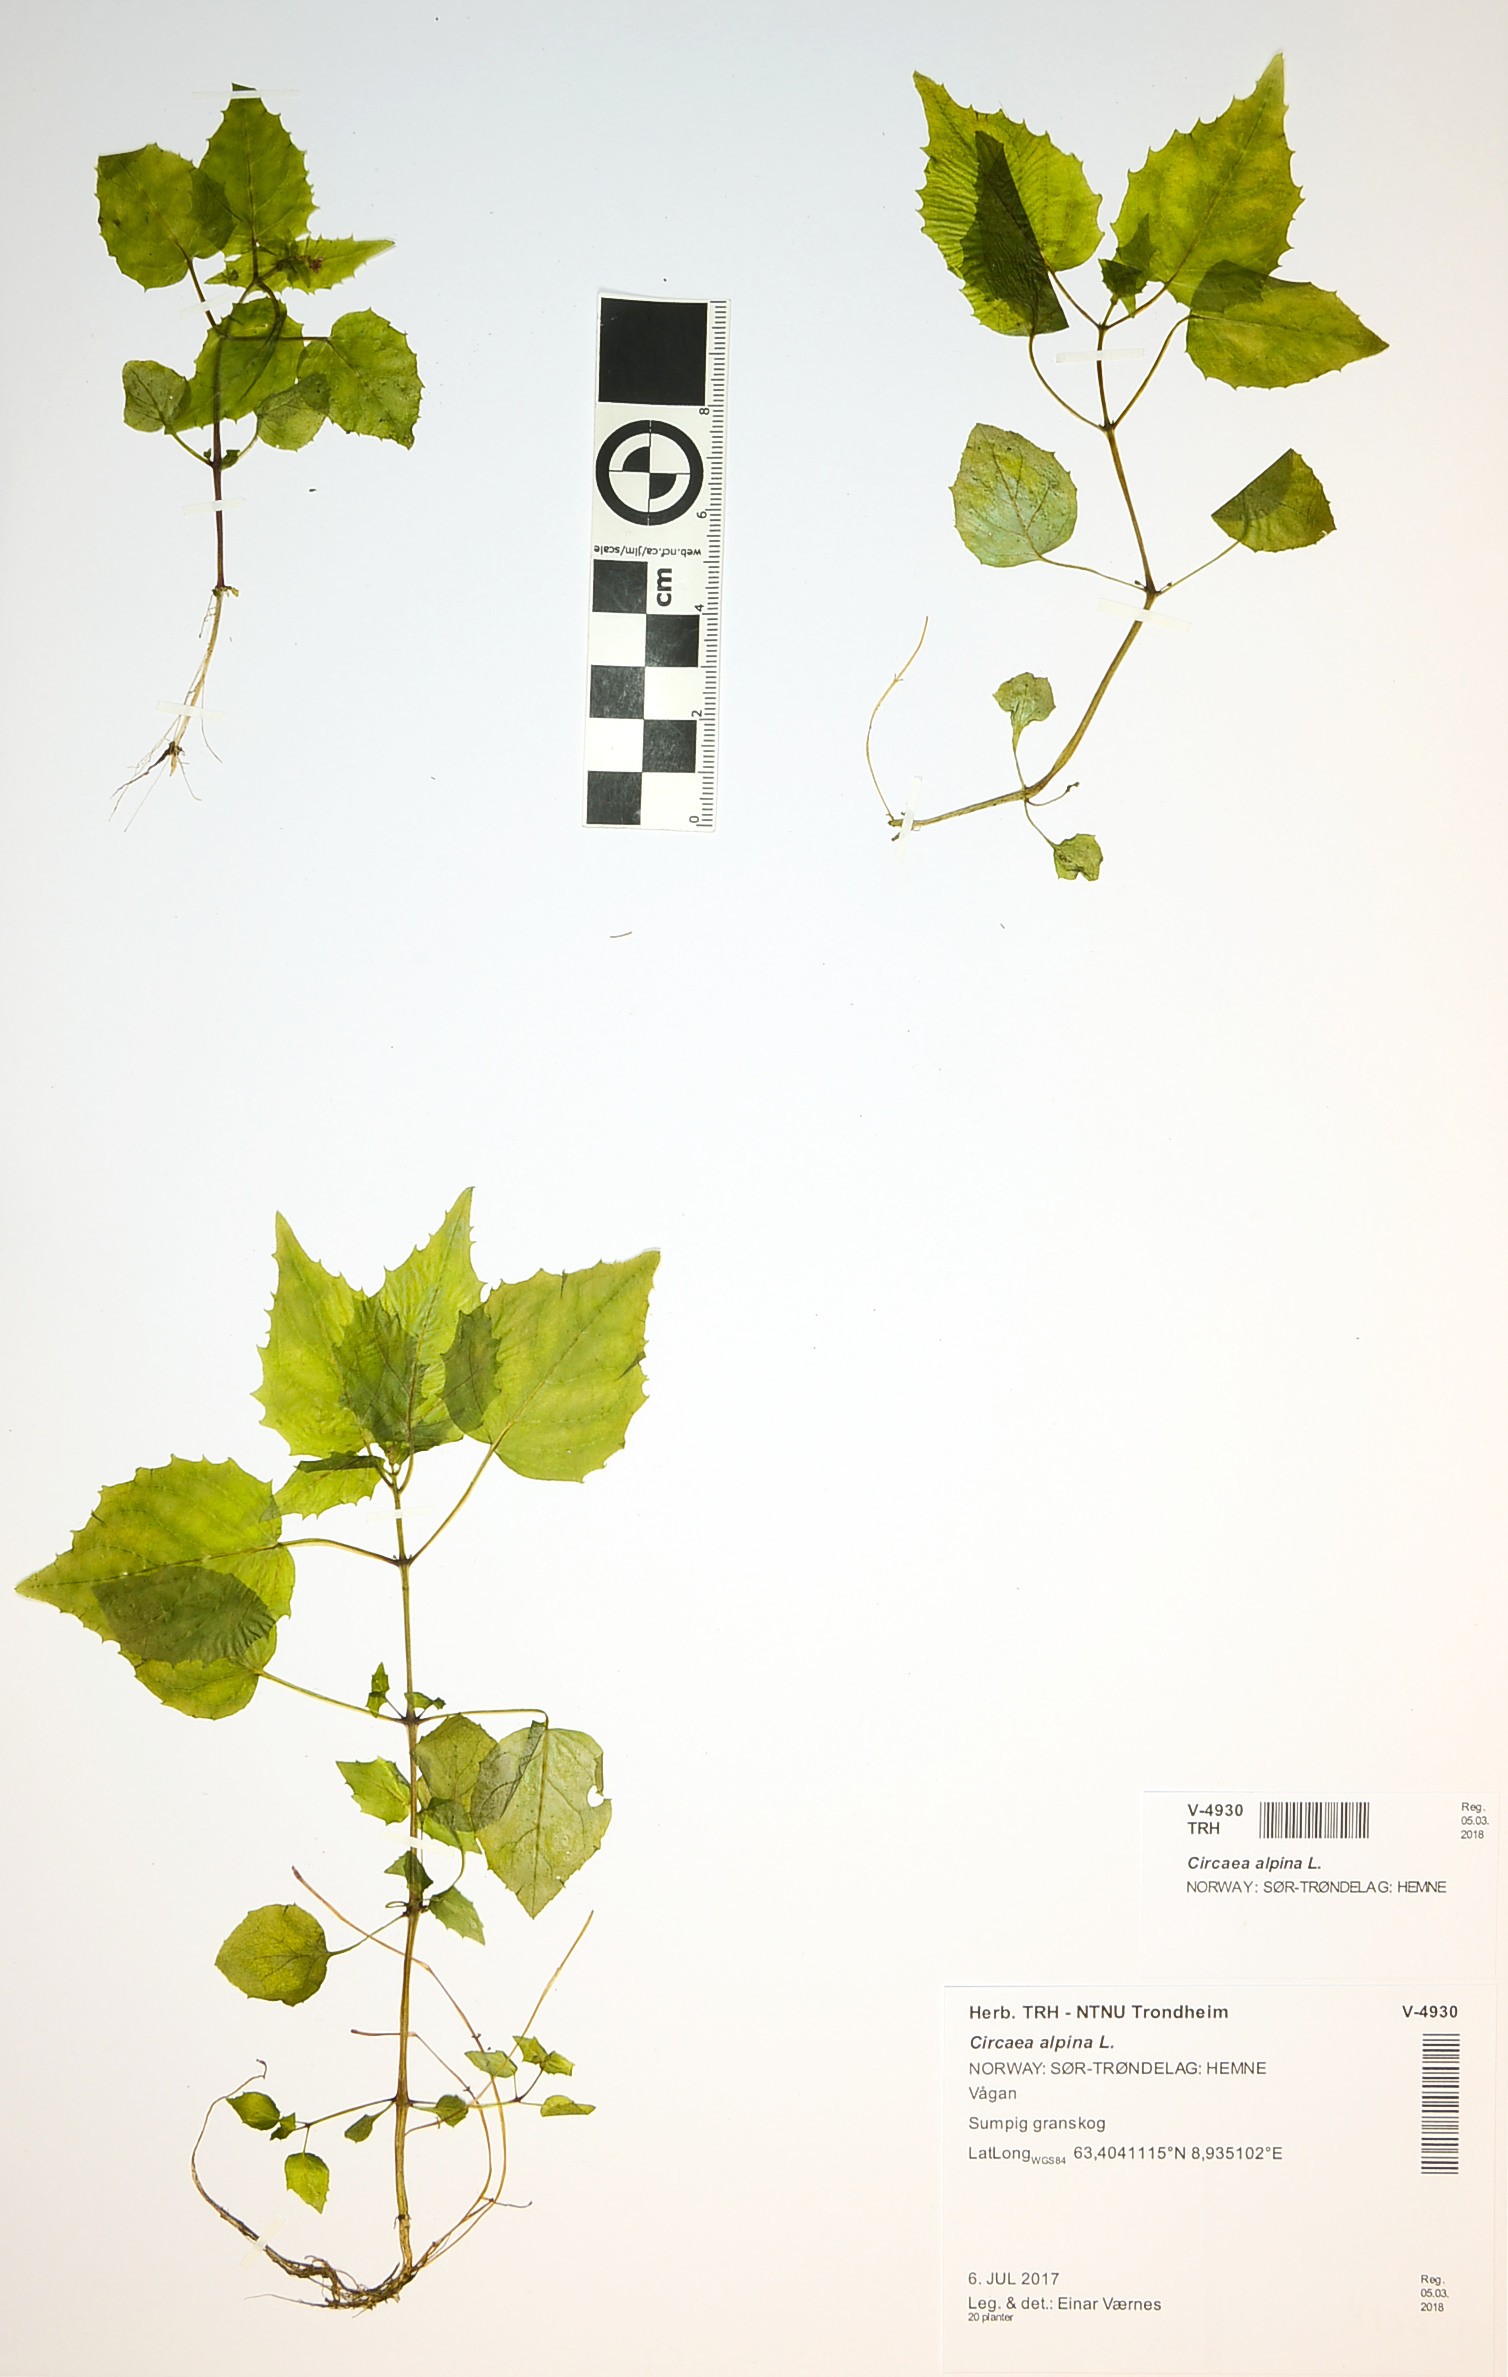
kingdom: Plantae
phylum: Tracheophyta
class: Magnoliopsida
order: Myrtales
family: Onagraceae
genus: Circaea
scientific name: Circaea alpina
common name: Alpine enchanter's-nightshade
